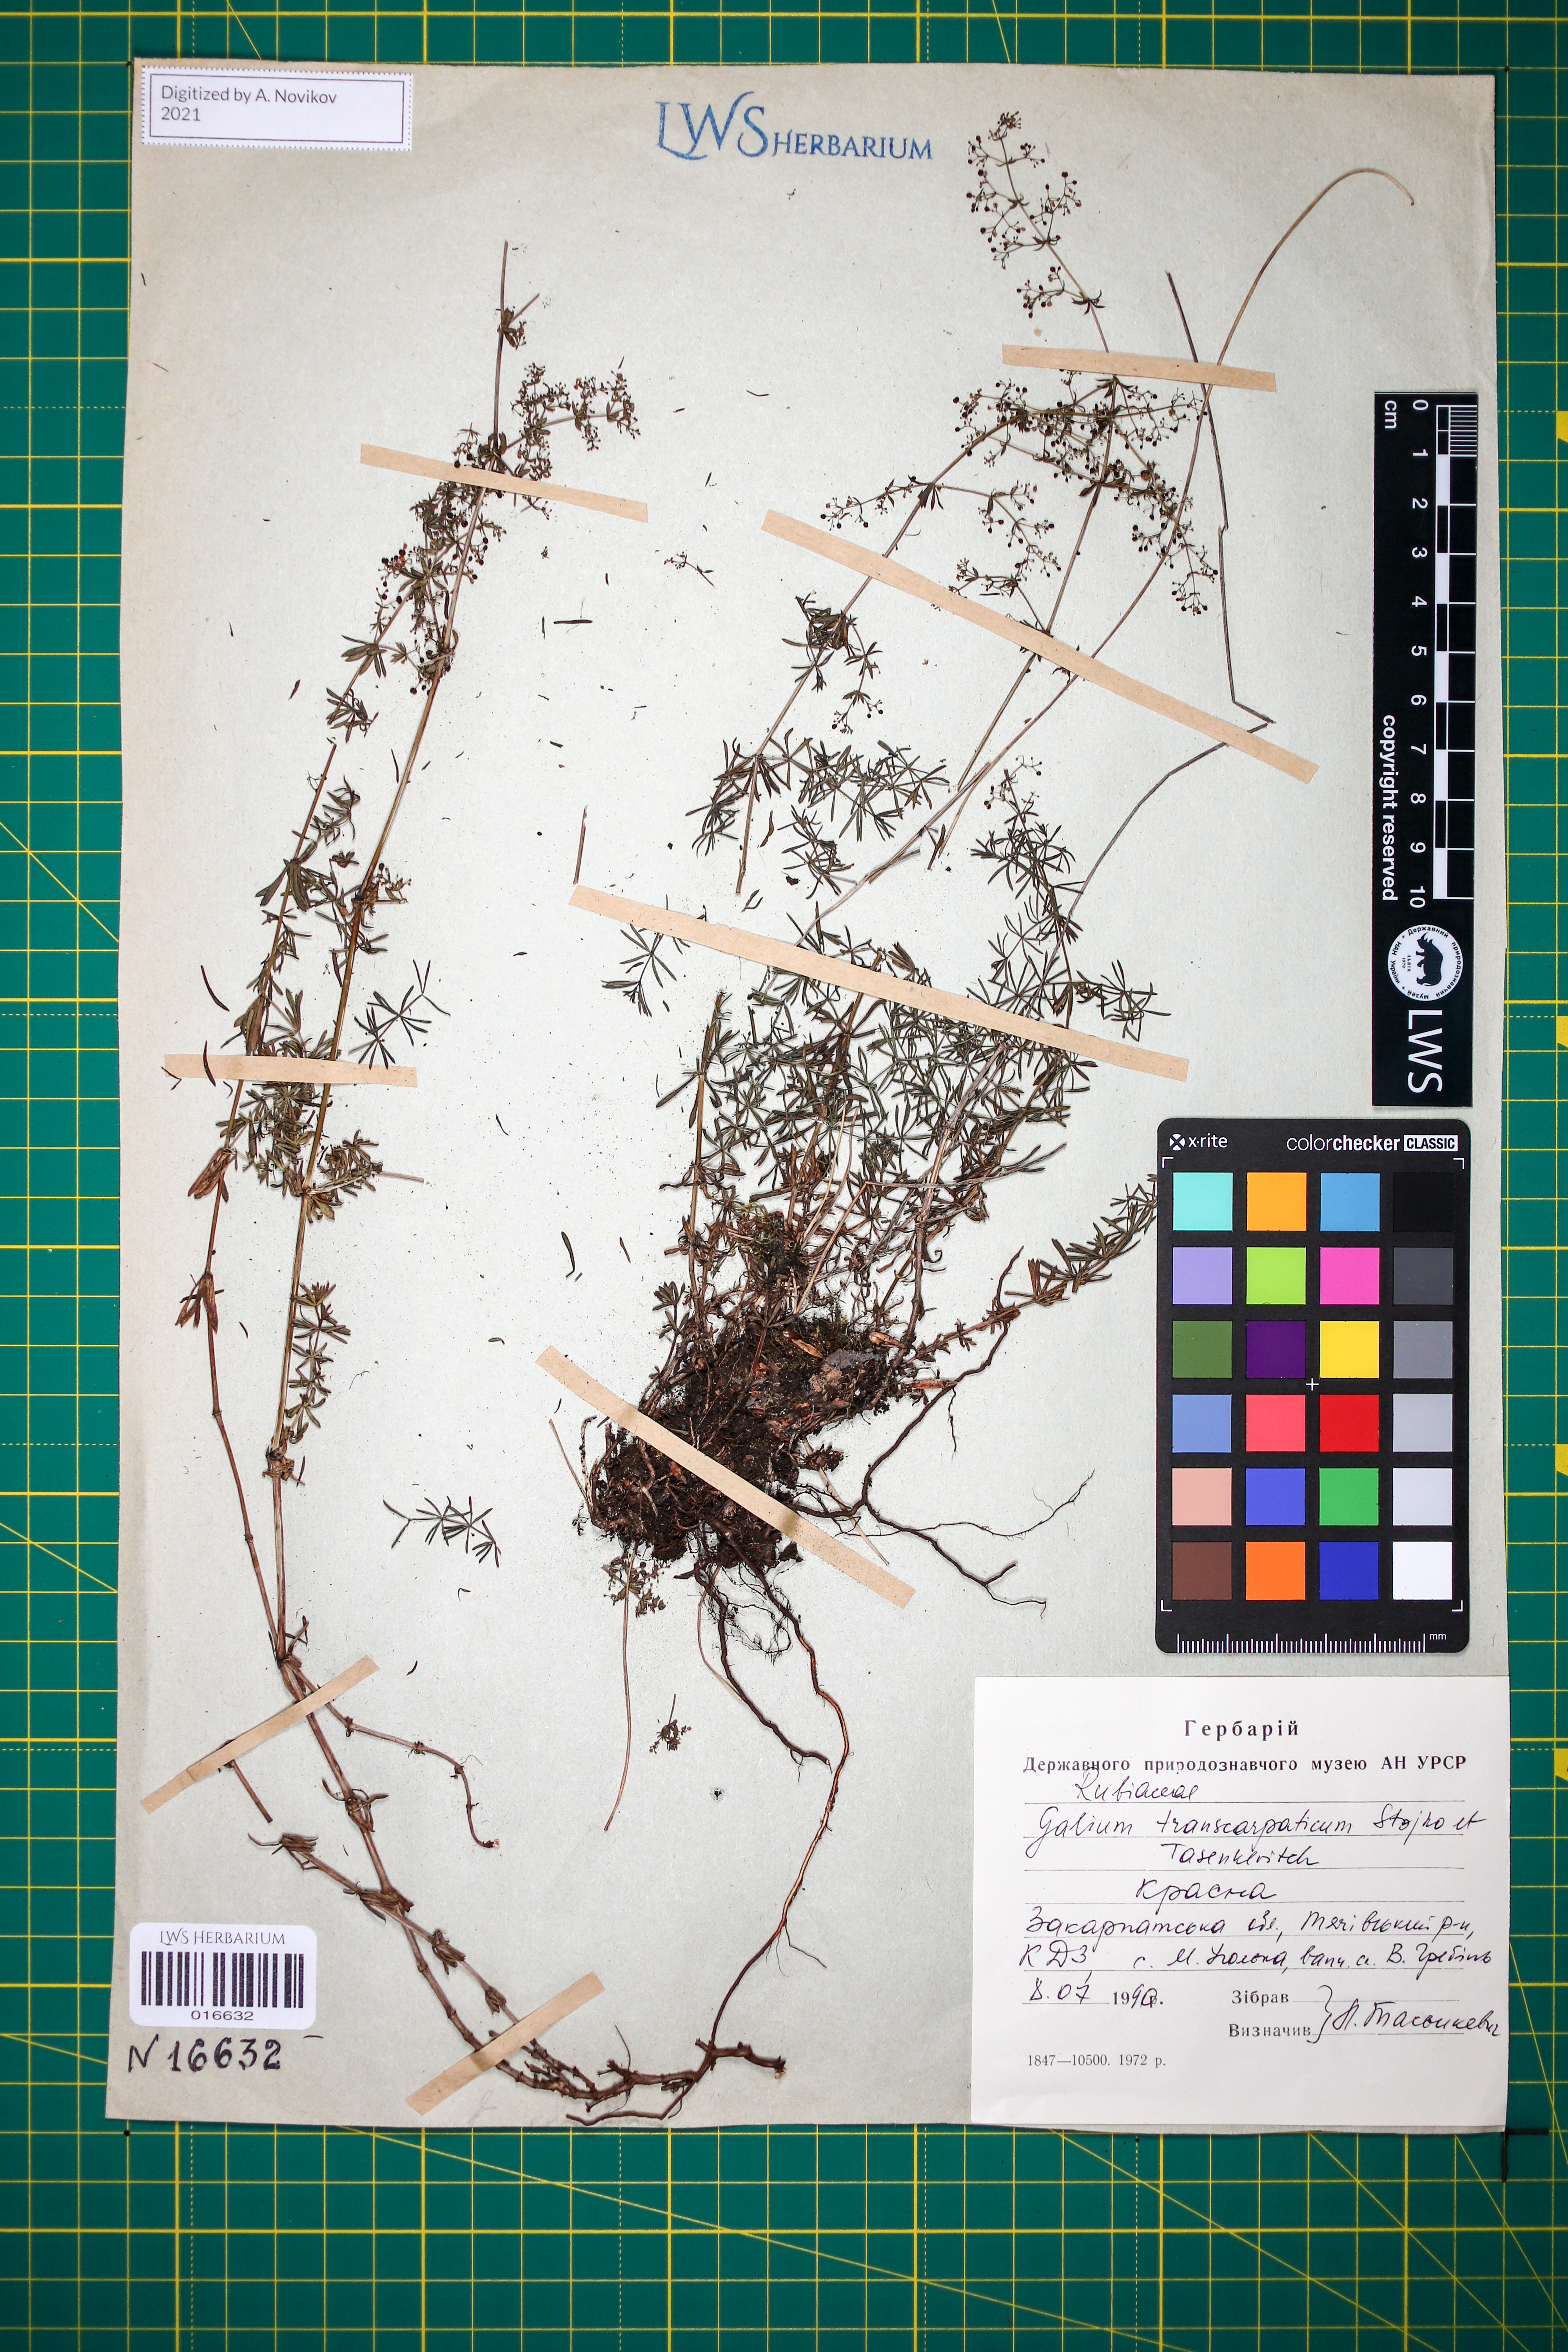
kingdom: Plantae
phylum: Tracheophyta
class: Magnoliopsida
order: Gentianales
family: Rubiaceae
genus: Galium
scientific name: Galium transcarpaticum
